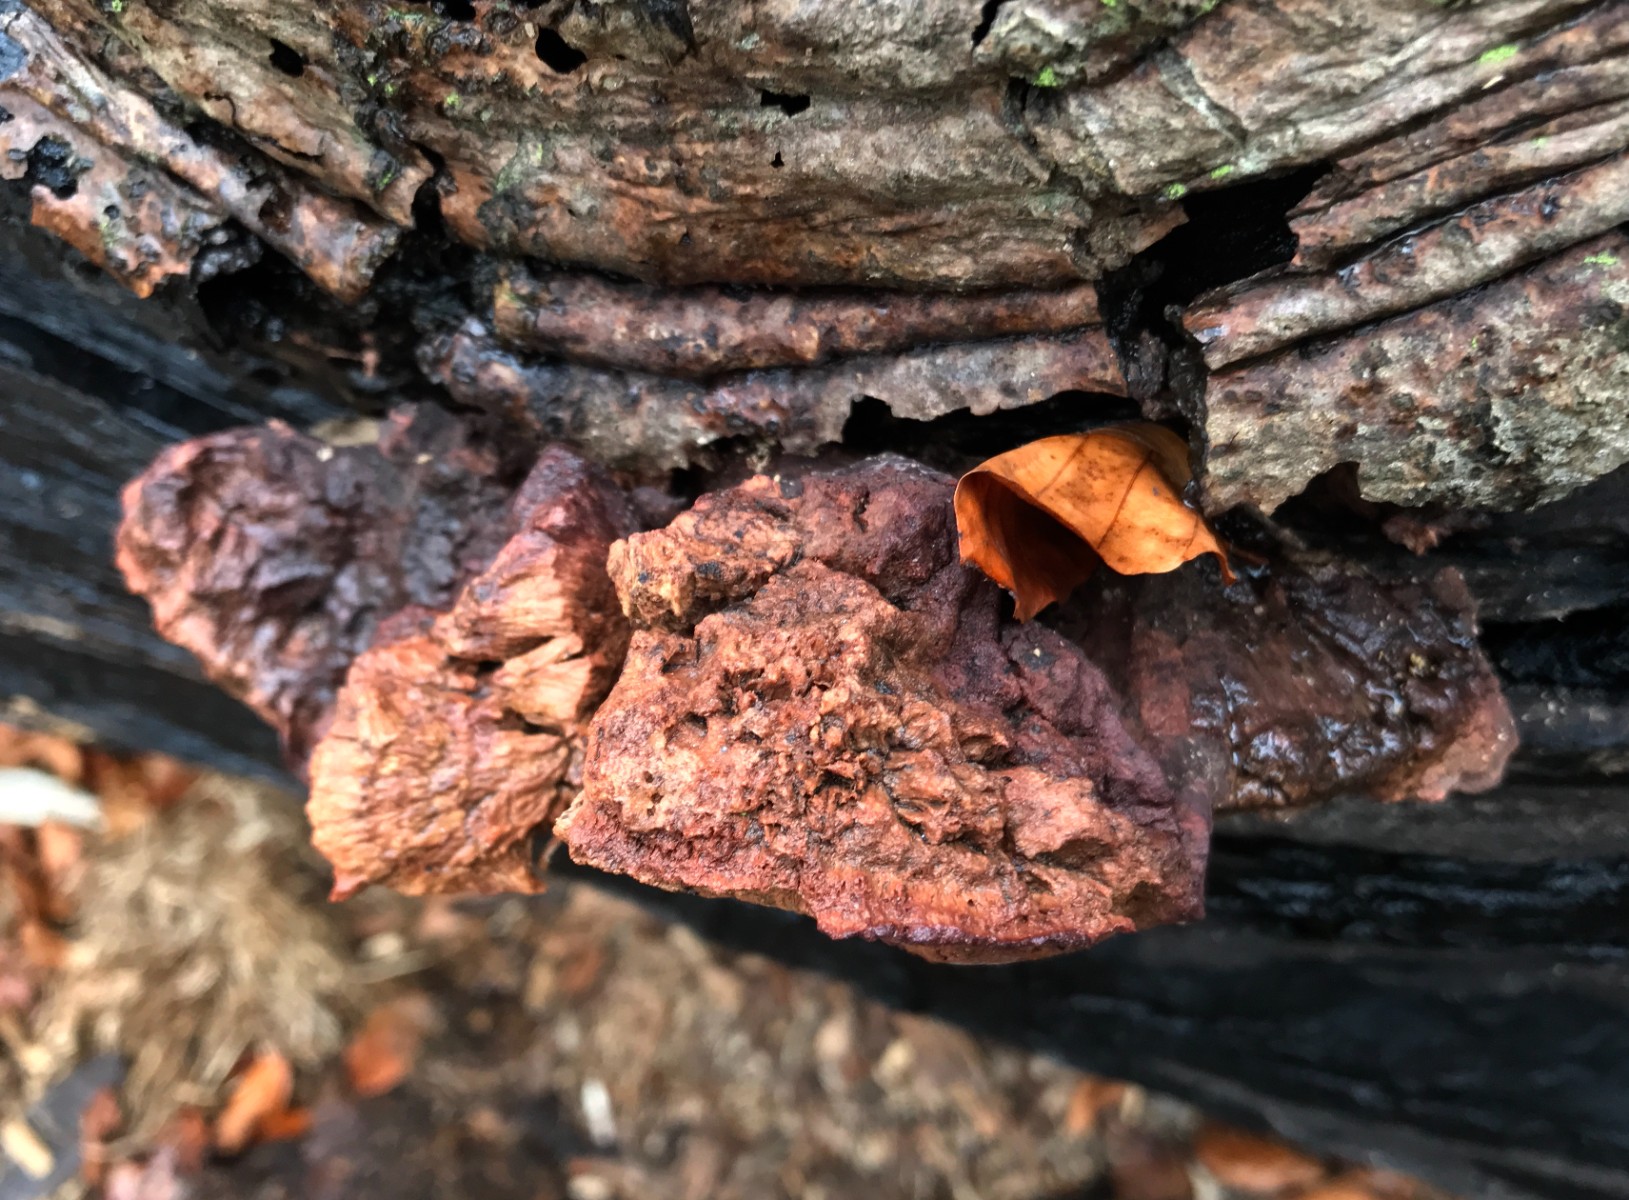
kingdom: Fungi
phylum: Basidiomycota
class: Agaricomycetes
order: Polyporales
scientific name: Polyporales
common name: poresvampordenen
